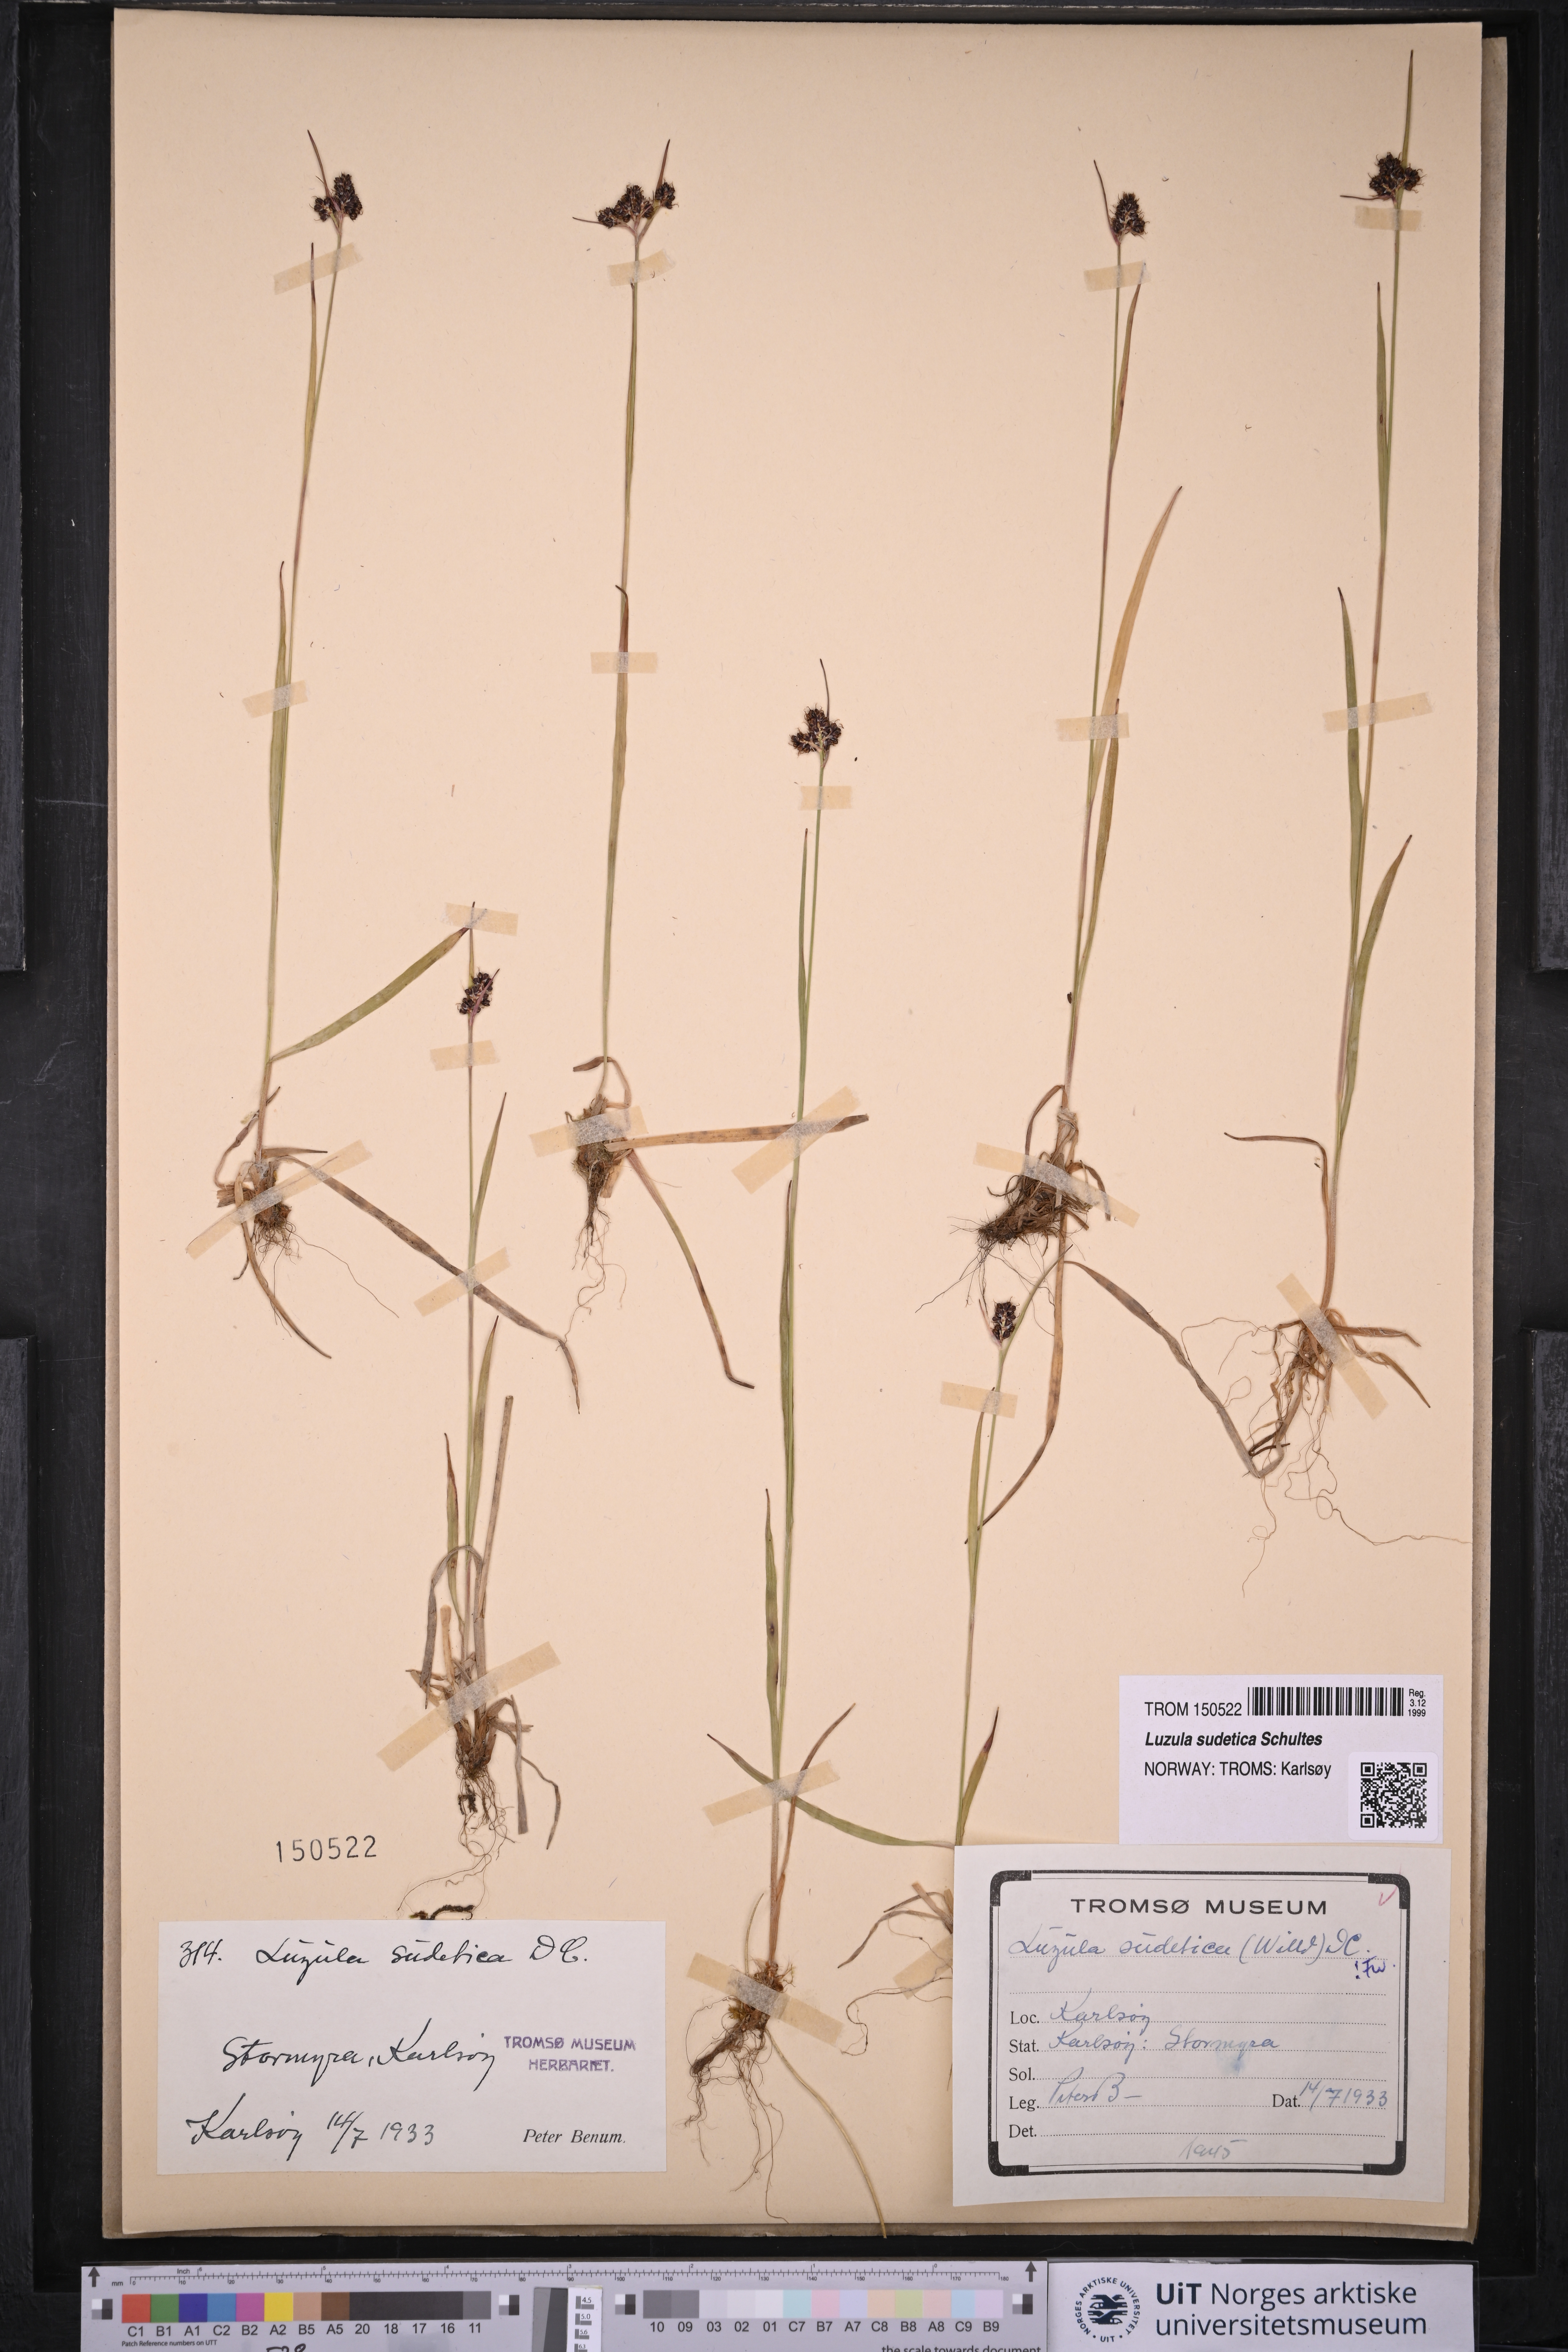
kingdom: Plantae
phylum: Tracheophyta
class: Liliopsida
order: Poales
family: Juncaceae
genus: Luzula
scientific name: Luzula sudetica
